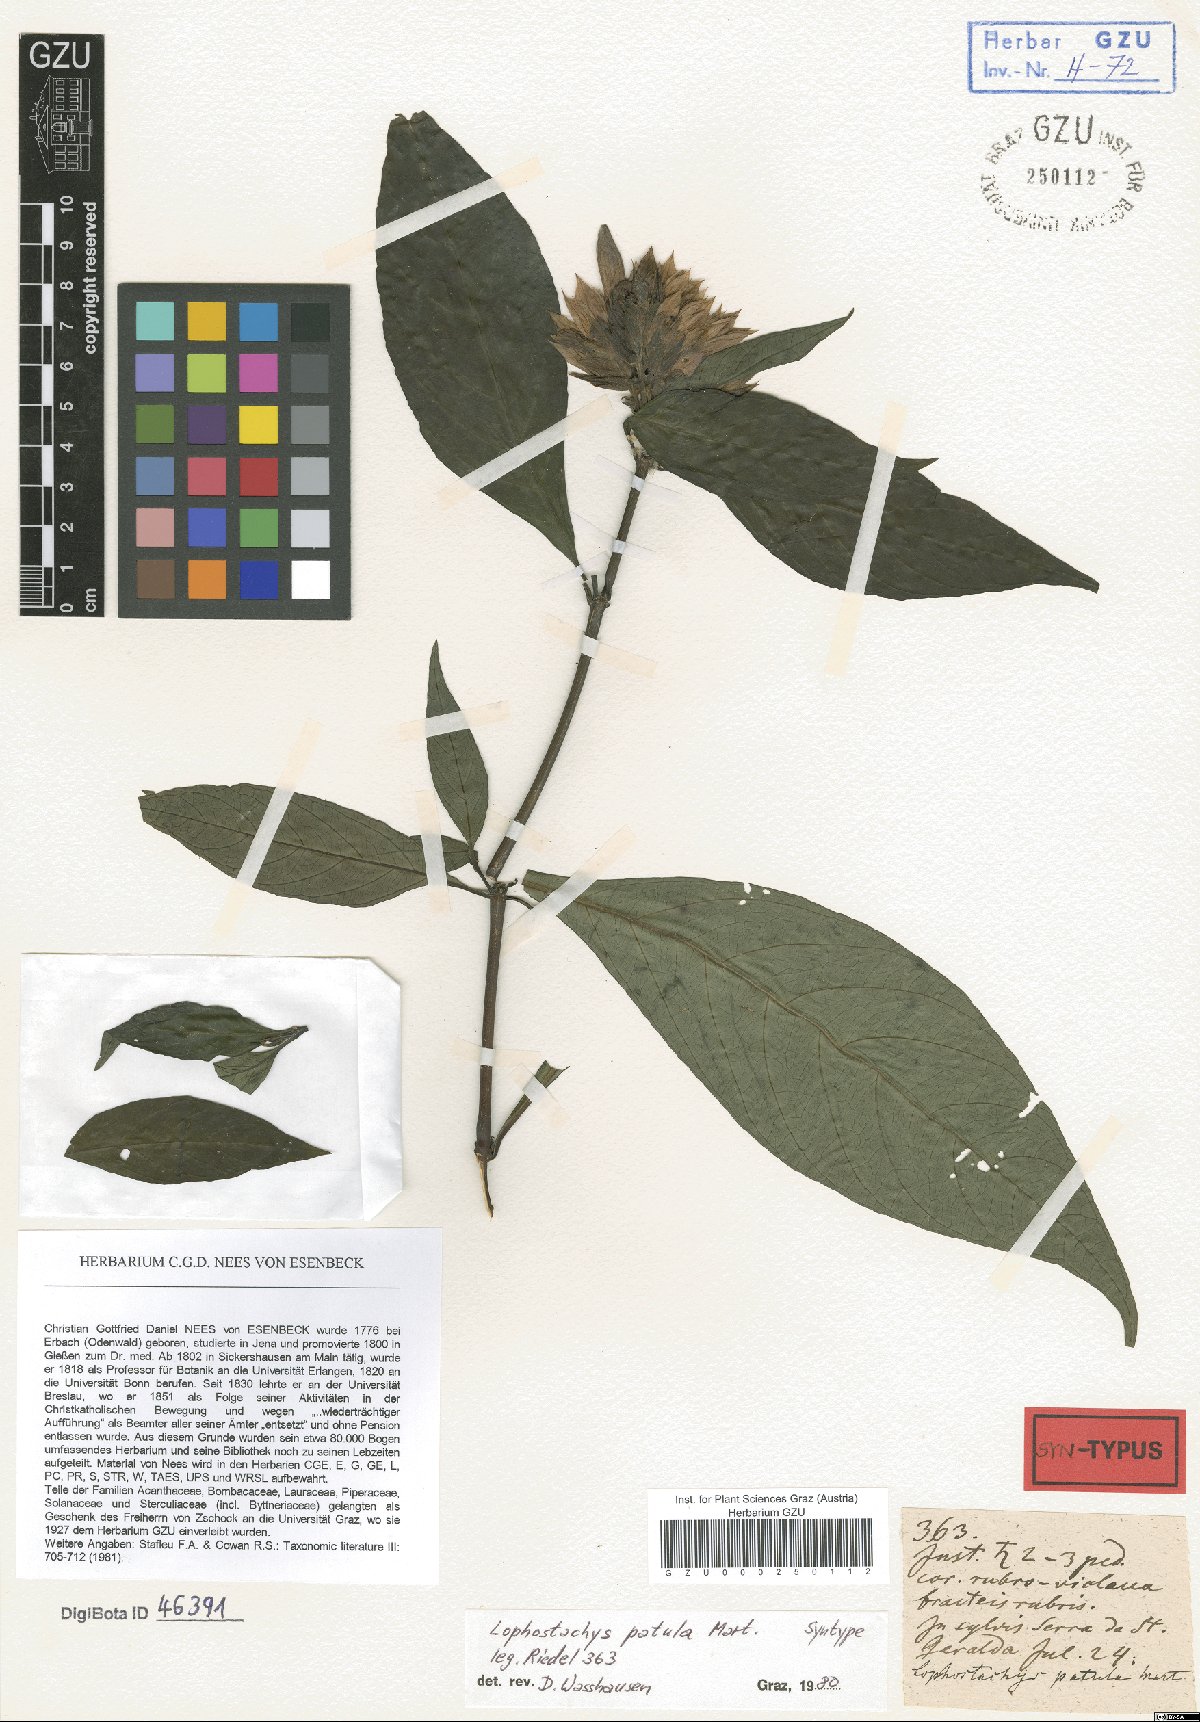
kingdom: Plantae
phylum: Tracheophyta
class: Magnoliopsida
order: Lamiales
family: Acanthaceae
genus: Lepidagathis
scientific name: Lepidagathis laxifolia
